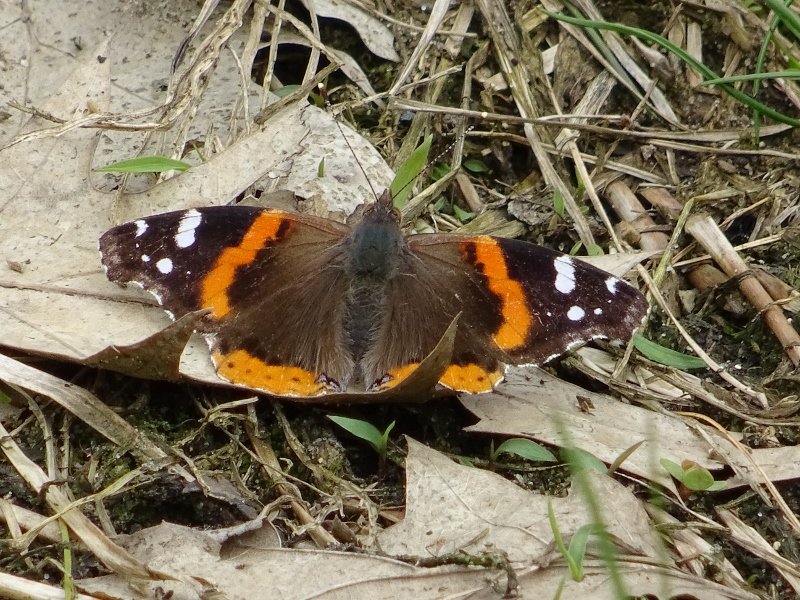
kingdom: Animalia
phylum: Arthropoda
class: Insecta
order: Lepidoptera
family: Nymphalidae
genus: Vanessa
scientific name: Vanessa atalanta
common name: Red Admiral
